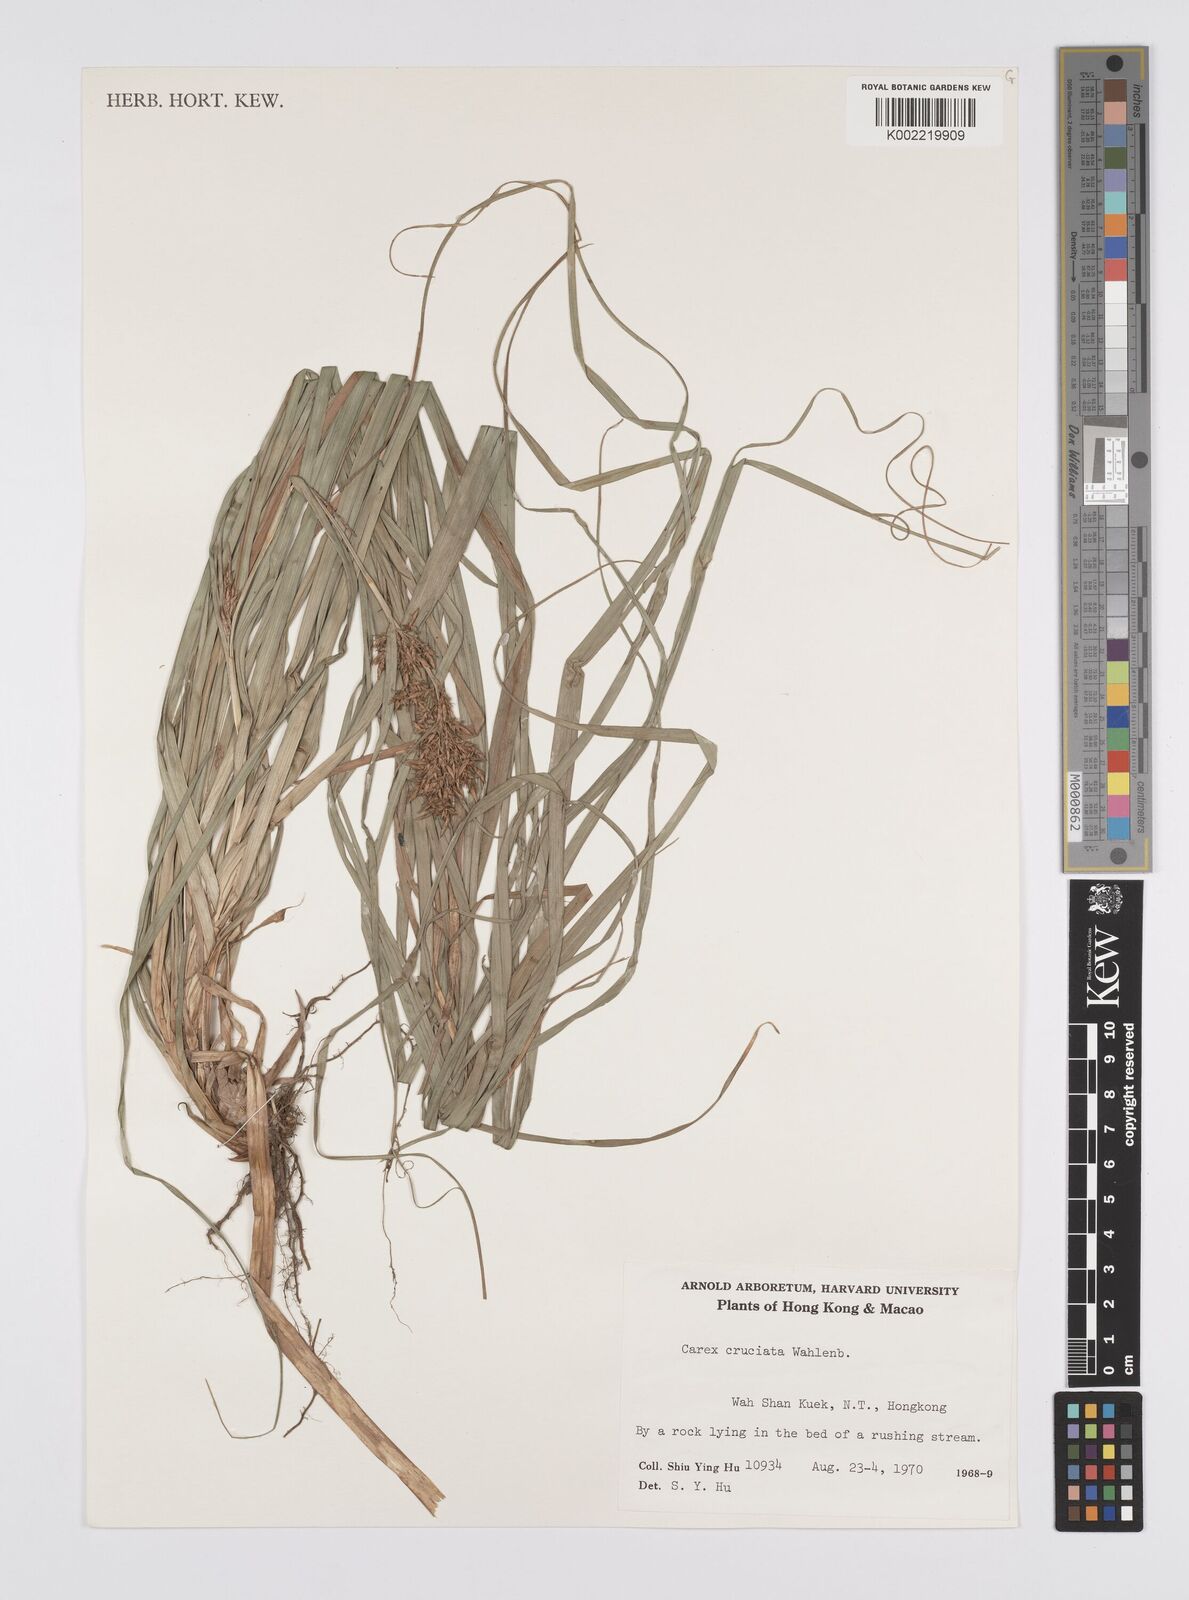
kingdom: Plantae
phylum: Tracheophyta
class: Liliopsida
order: Poales
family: Cyperaceae
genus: Carex
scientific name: Carex cruciata
